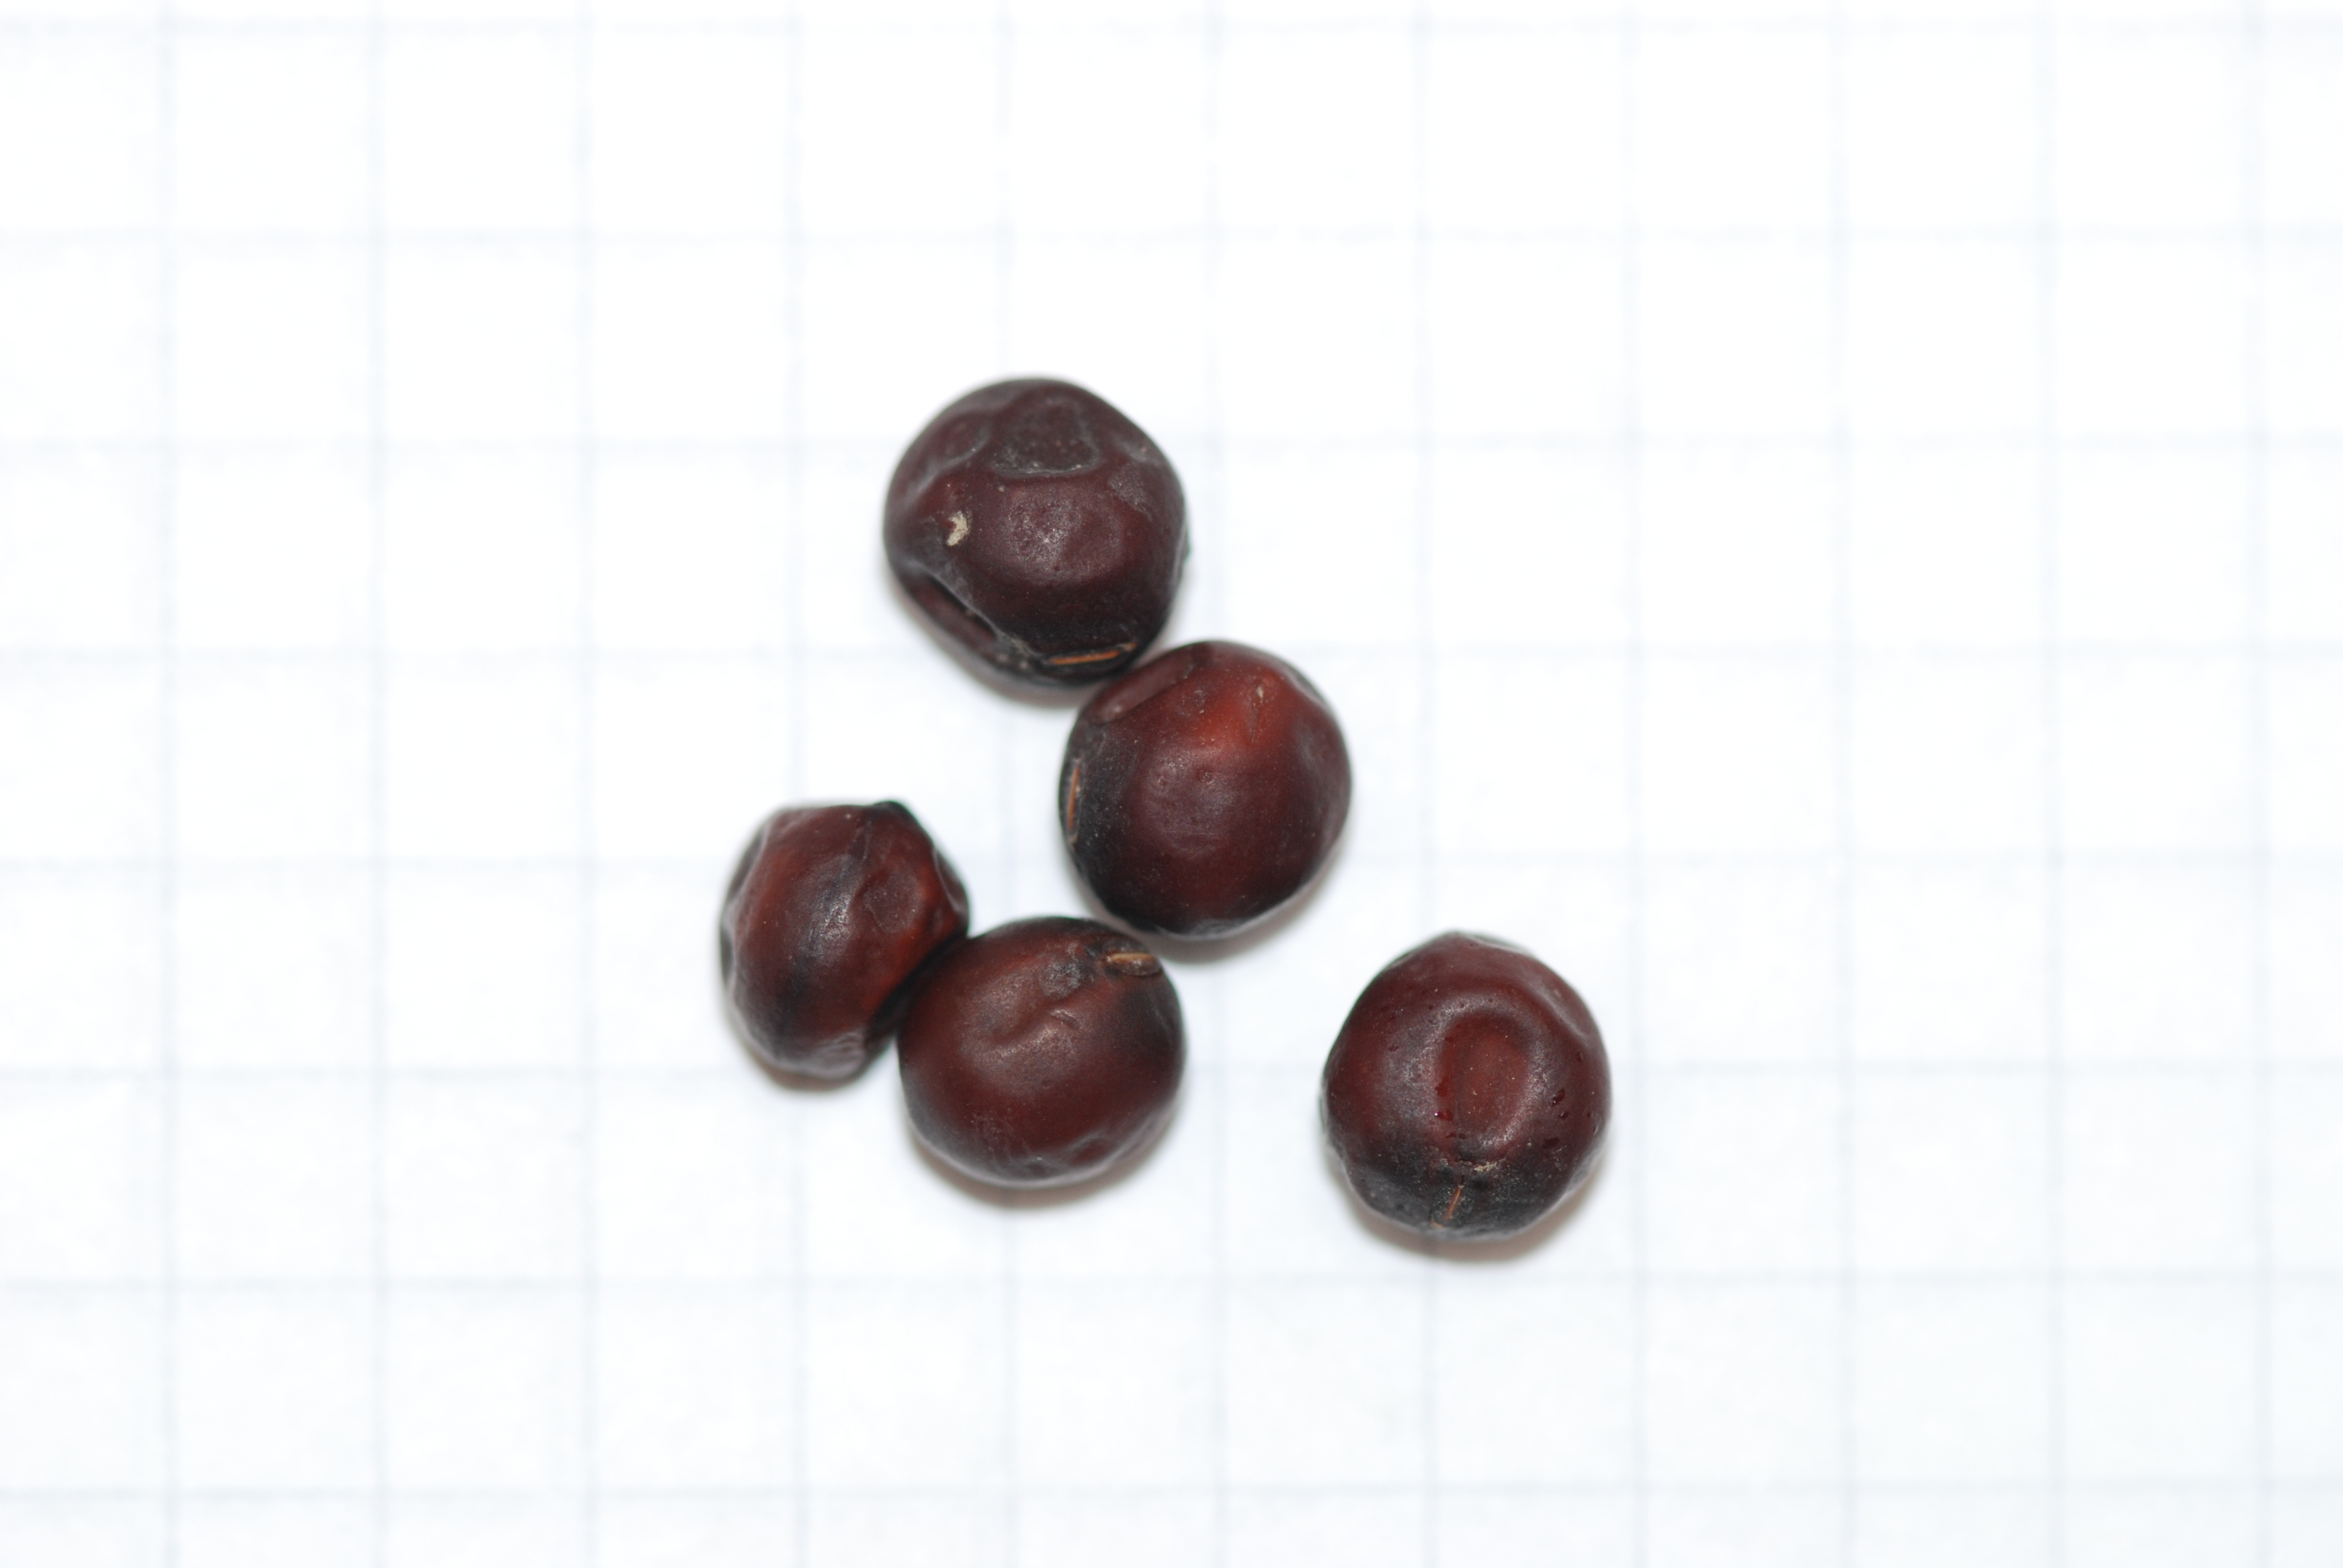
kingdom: Plantae
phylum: Tracheophyta
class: Magnoliopsida
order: Fabales
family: Fabaceae
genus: Lathyrus
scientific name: Lathyrus oleraceus
